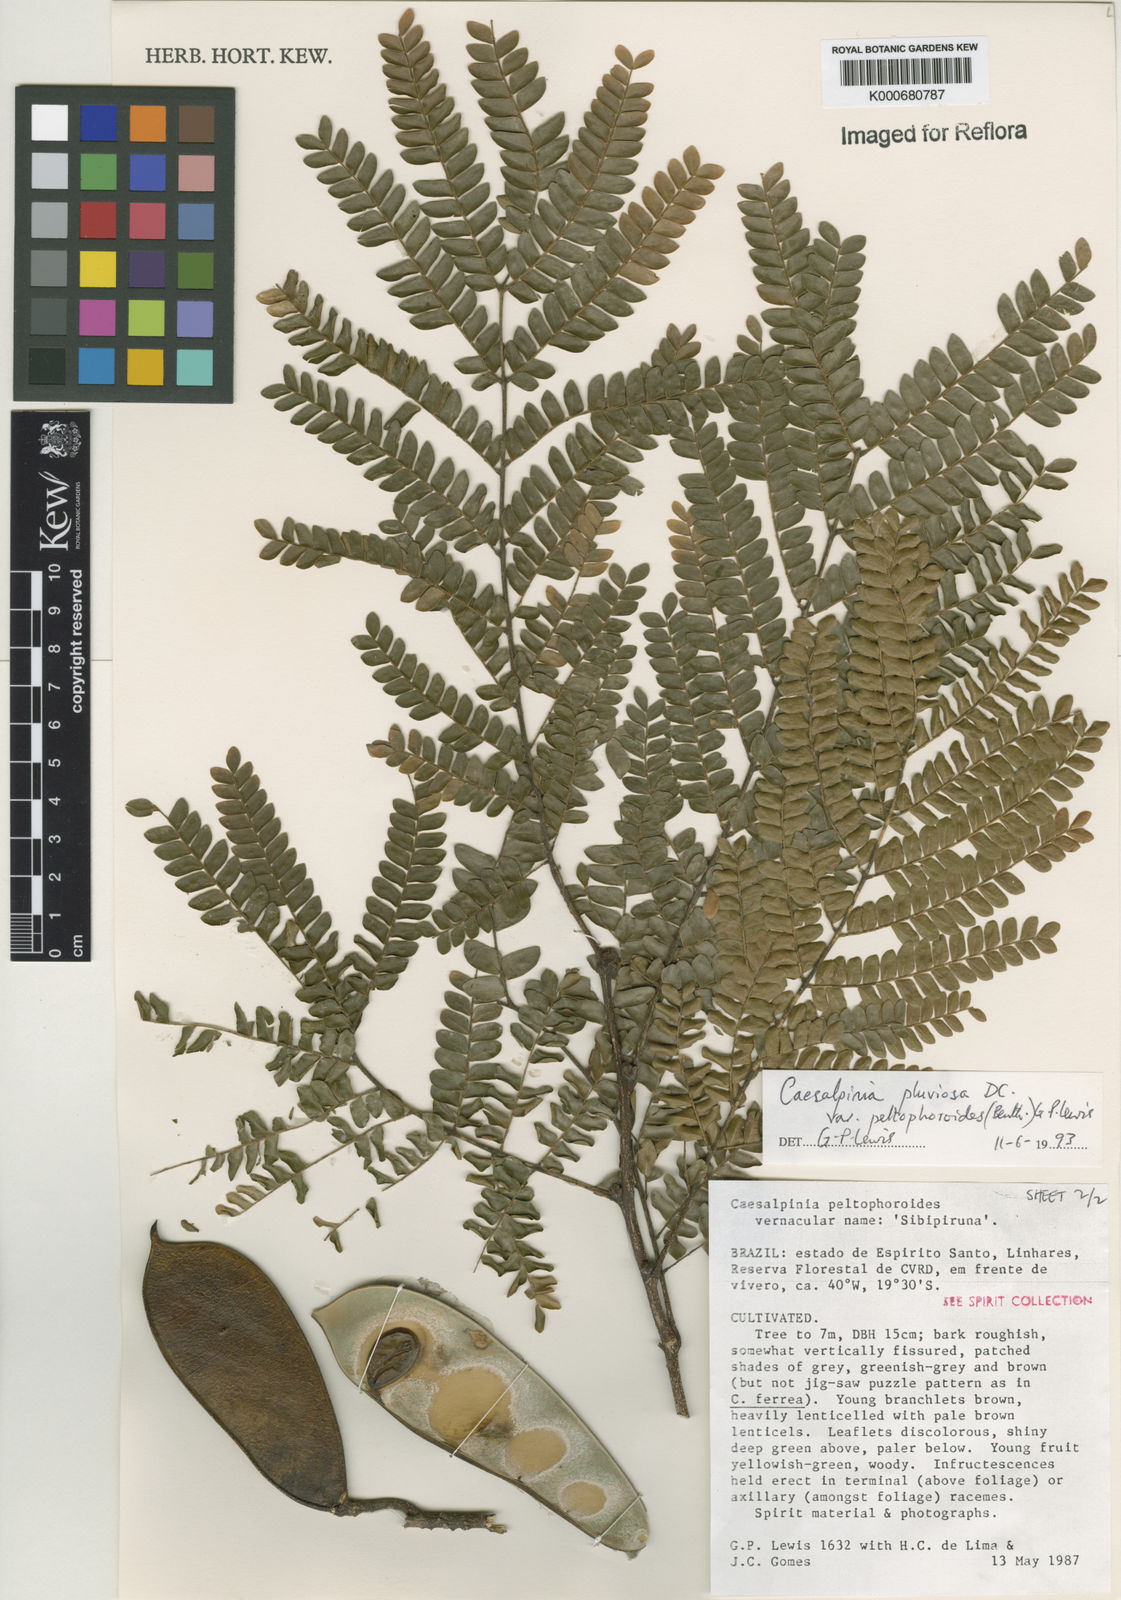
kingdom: Plantae
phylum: Tracheophyta
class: Magnoliopsida
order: Fabales
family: Fabaceae
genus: Cenostigma
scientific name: Cenostigma pluviosum
